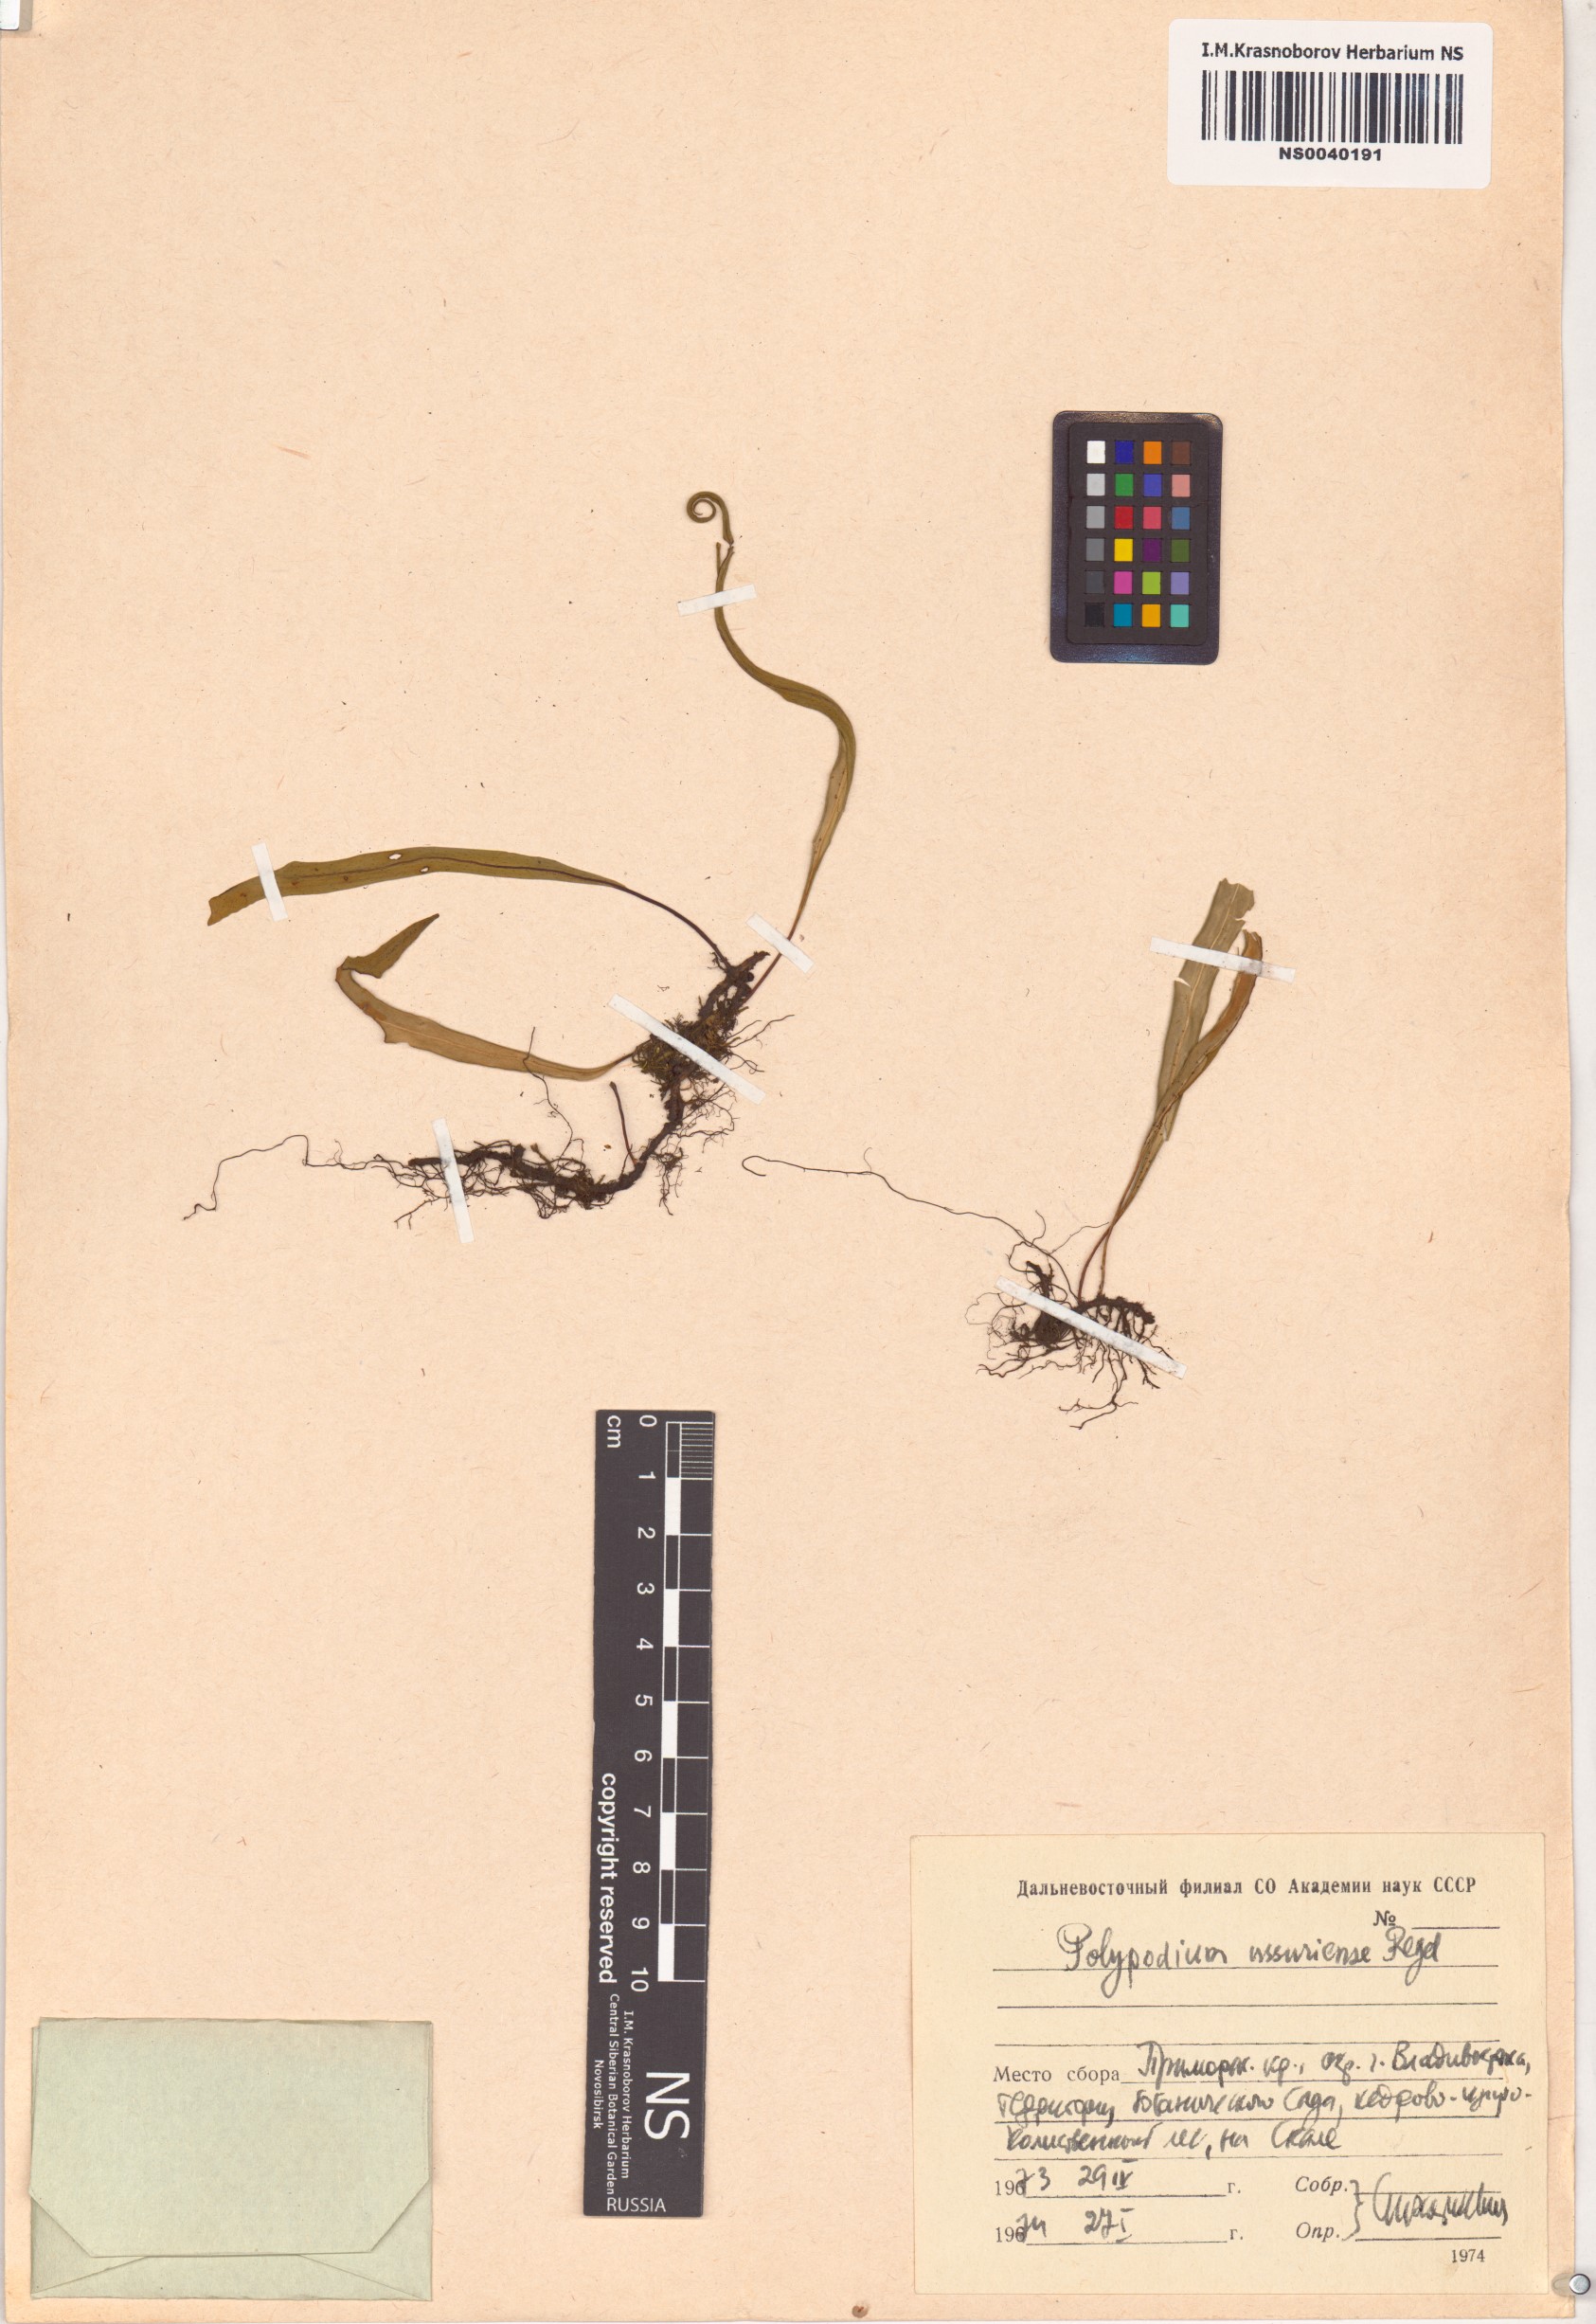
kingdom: Plantae
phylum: Tracheophyta
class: Polypodiopsida
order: Polypodiales
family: Polypodiaceae
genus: Lepisorus
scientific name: Lepisorus ussuriensis
